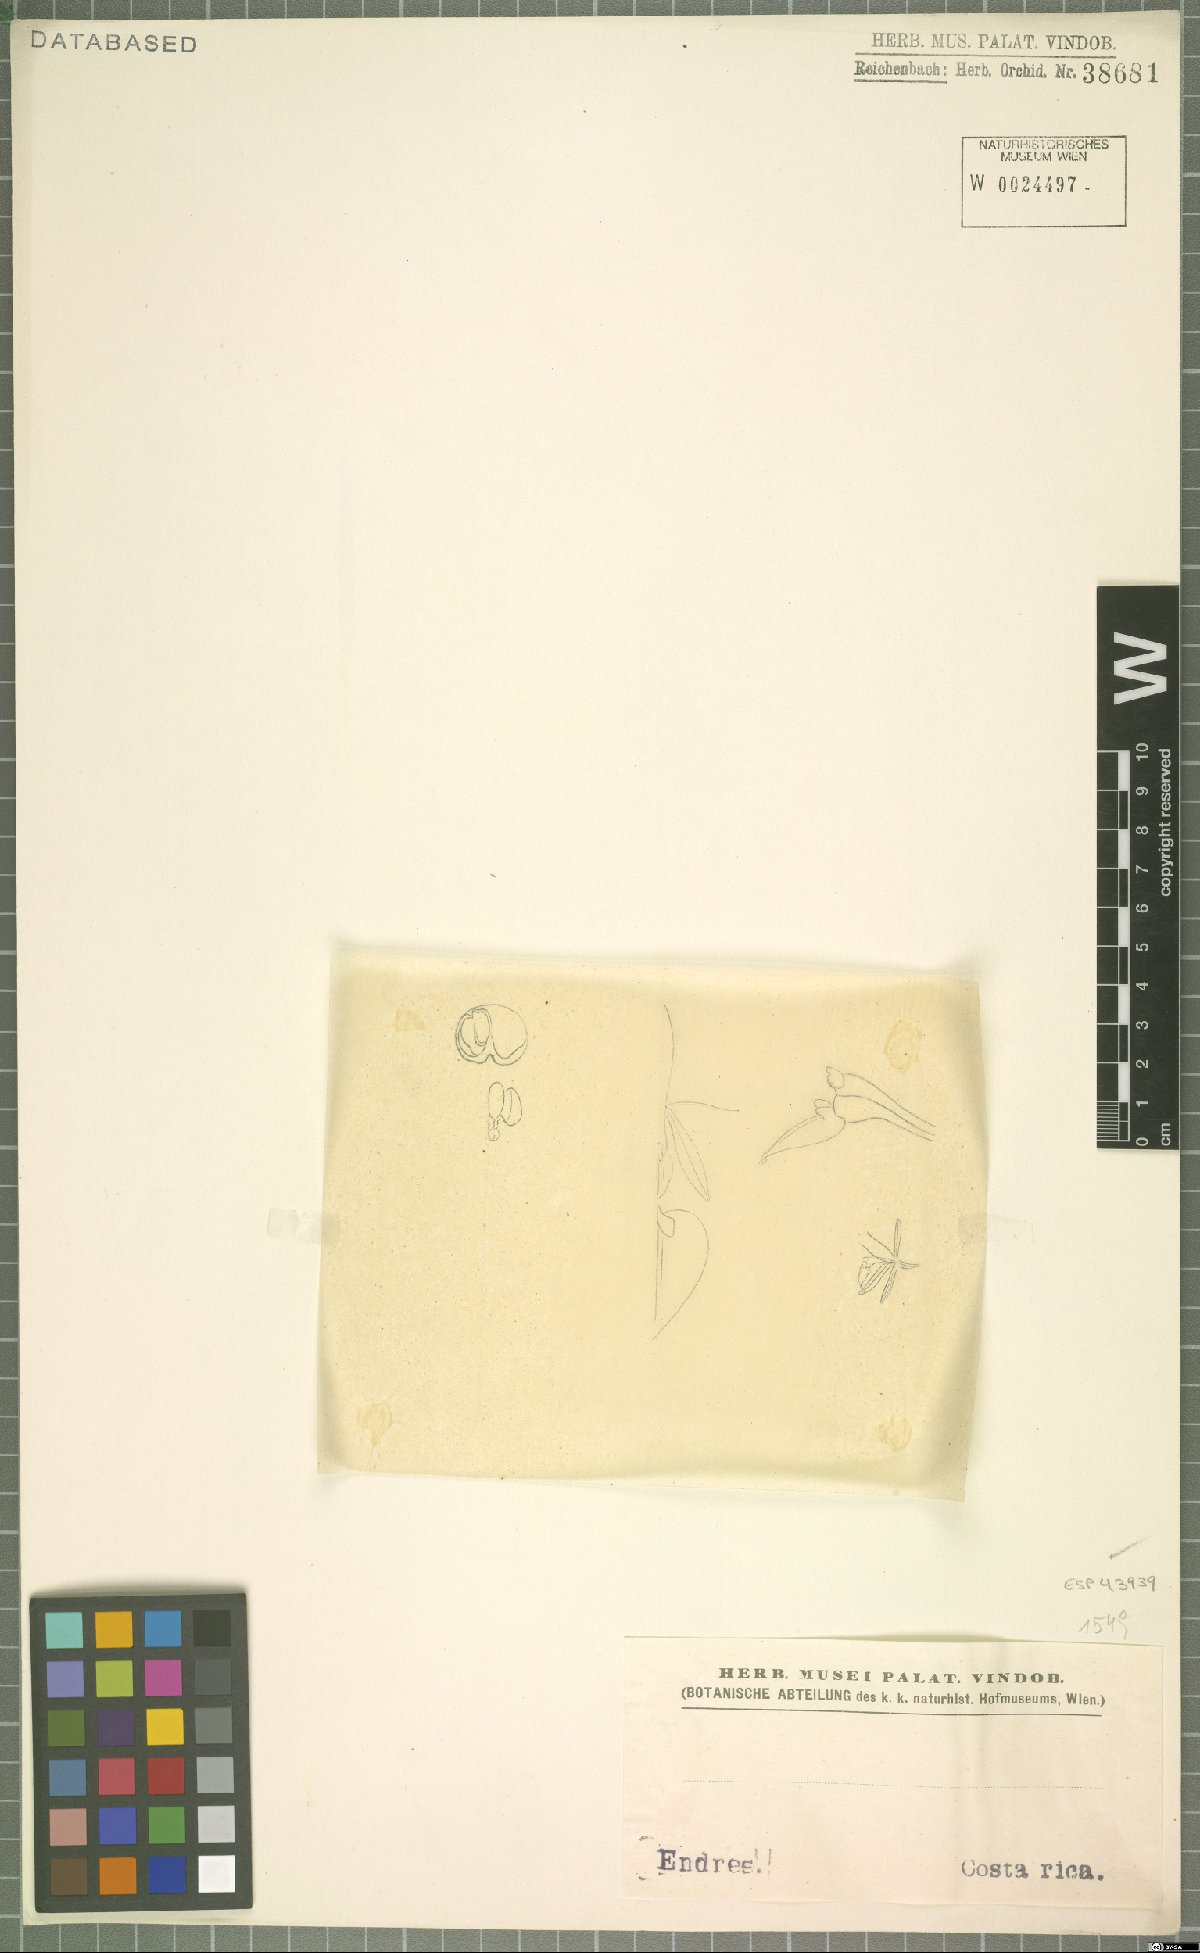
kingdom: Plantae
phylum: Tracheophyta
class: Liliopsida
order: Asparagales
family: Orchidaceae
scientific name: Orchidaceae
